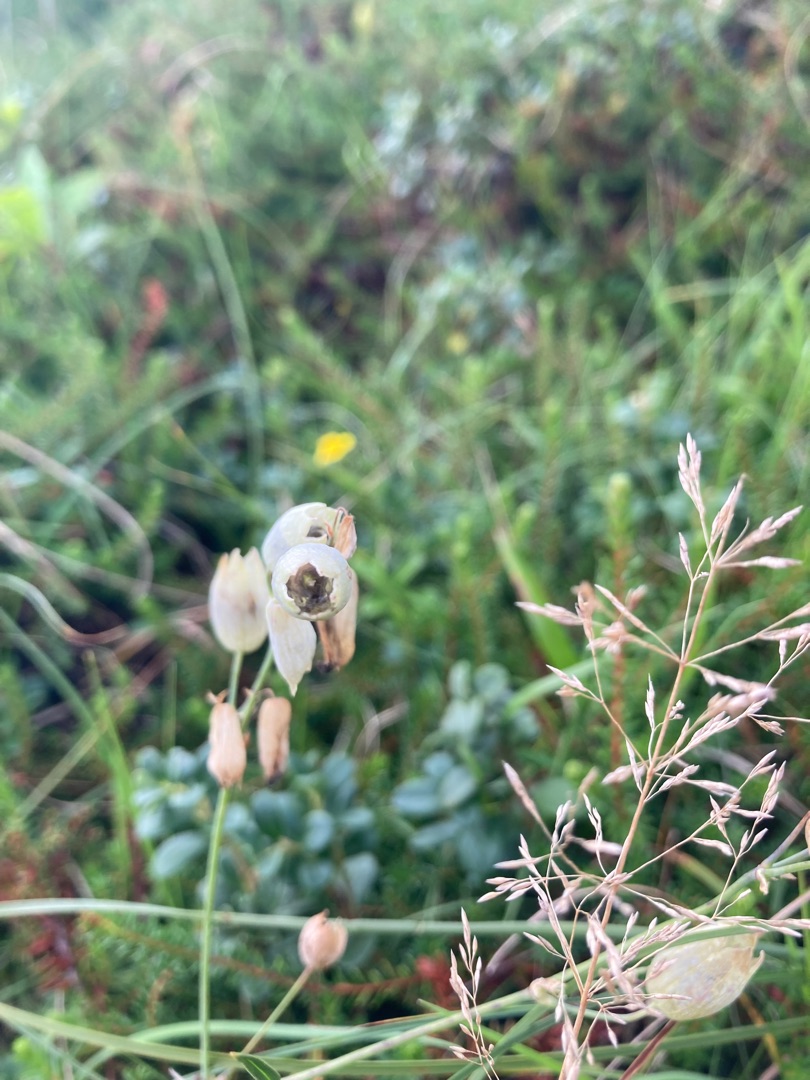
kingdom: Plantae
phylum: Tracheophyta
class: Magnoliopsida
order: Caryophyllales
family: Caryophyllaceae
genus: Silene
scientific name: Silene vulgaris
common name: Blæresmælde
